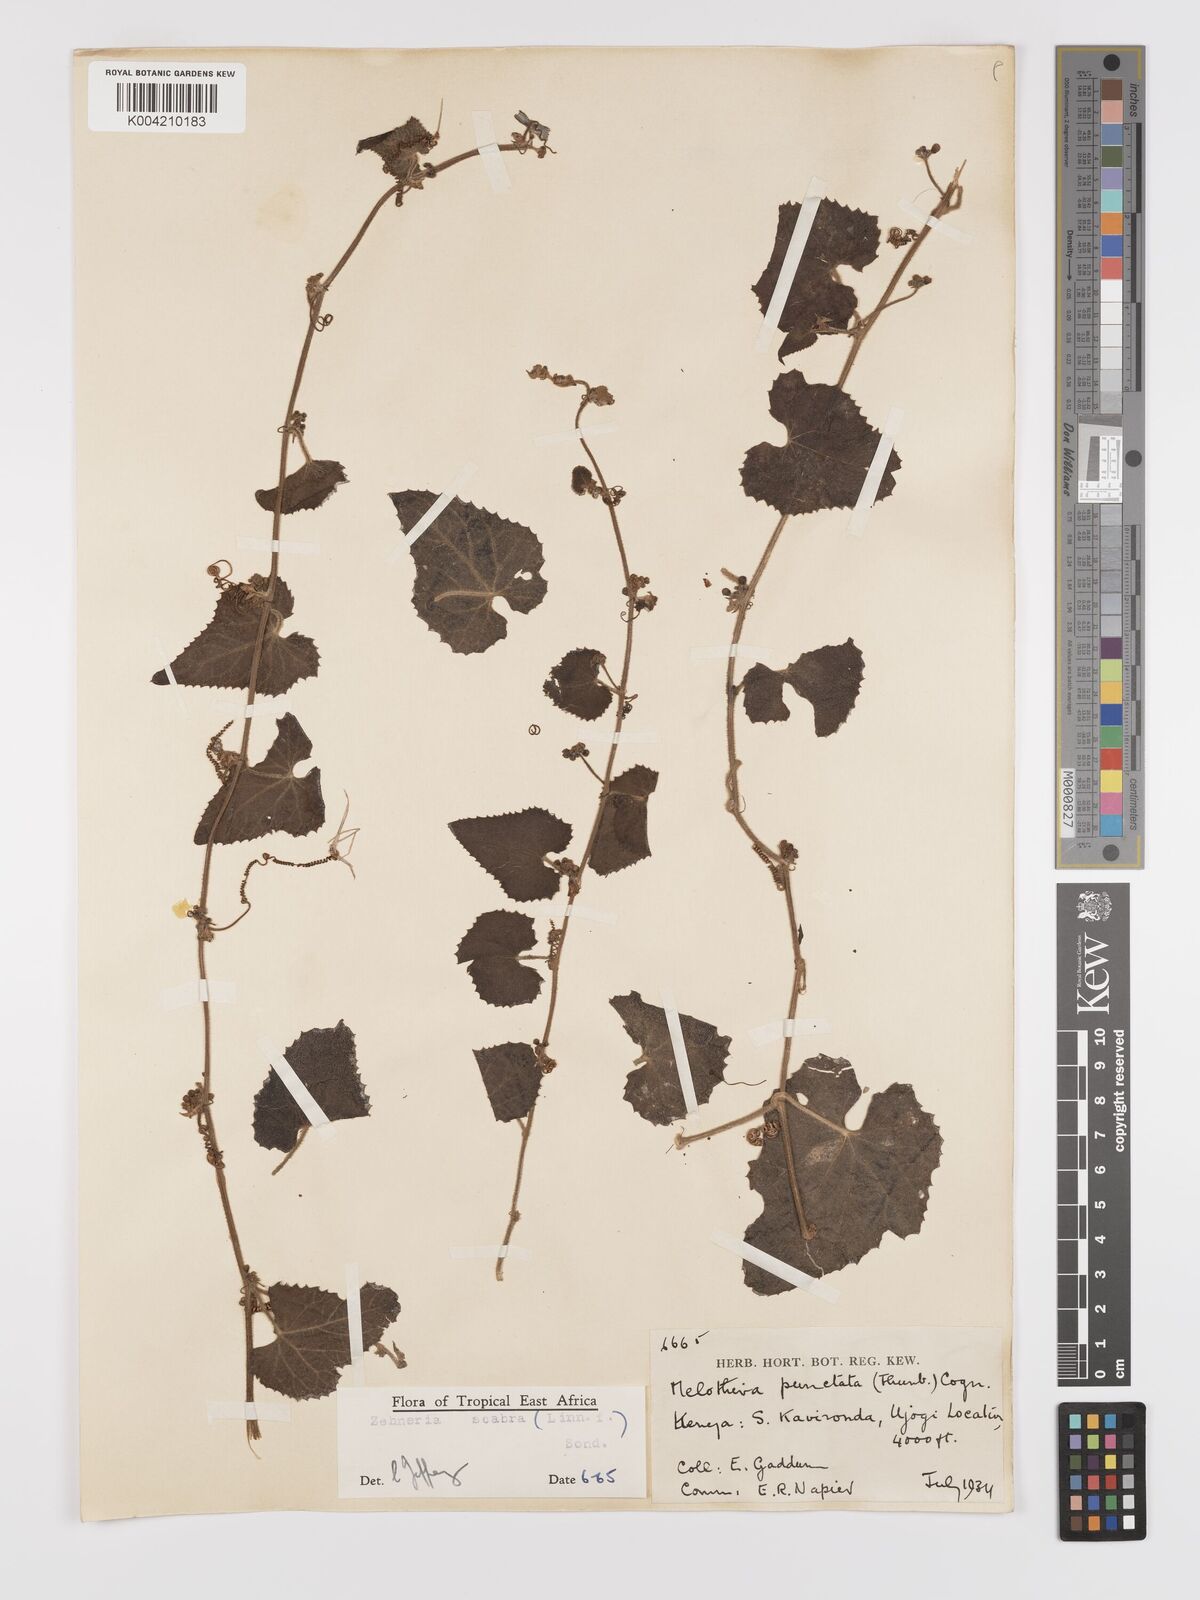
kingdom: Plantae
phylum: Tracheophyta
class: Magnoliopsida
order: Cucurbitales
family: Cucurbitaceae
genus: Zehneria
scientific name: Zehneria scabra
